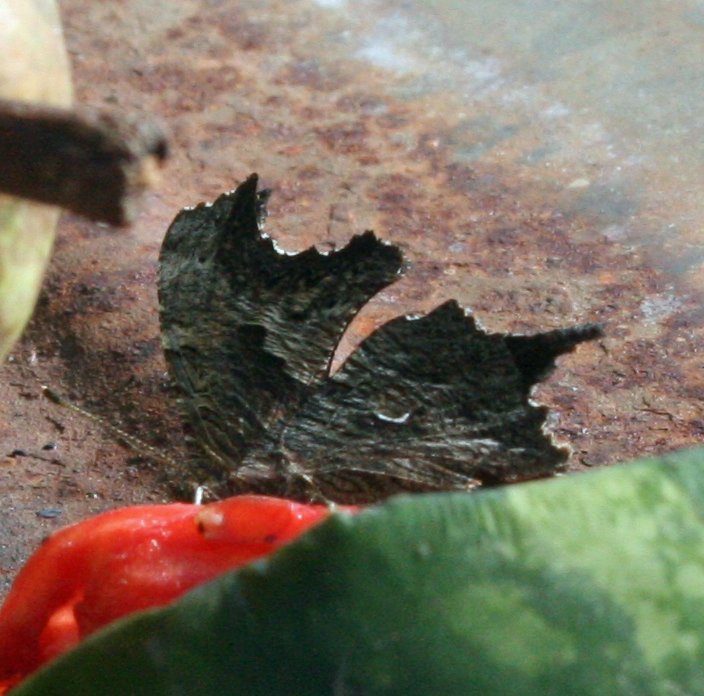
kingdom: Animalia
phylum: Arthropoda
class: Insecta
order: Lepidoptera
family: Nymphalidae
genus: Polygonia
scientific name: Polygonia progne
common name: Gray Comma
